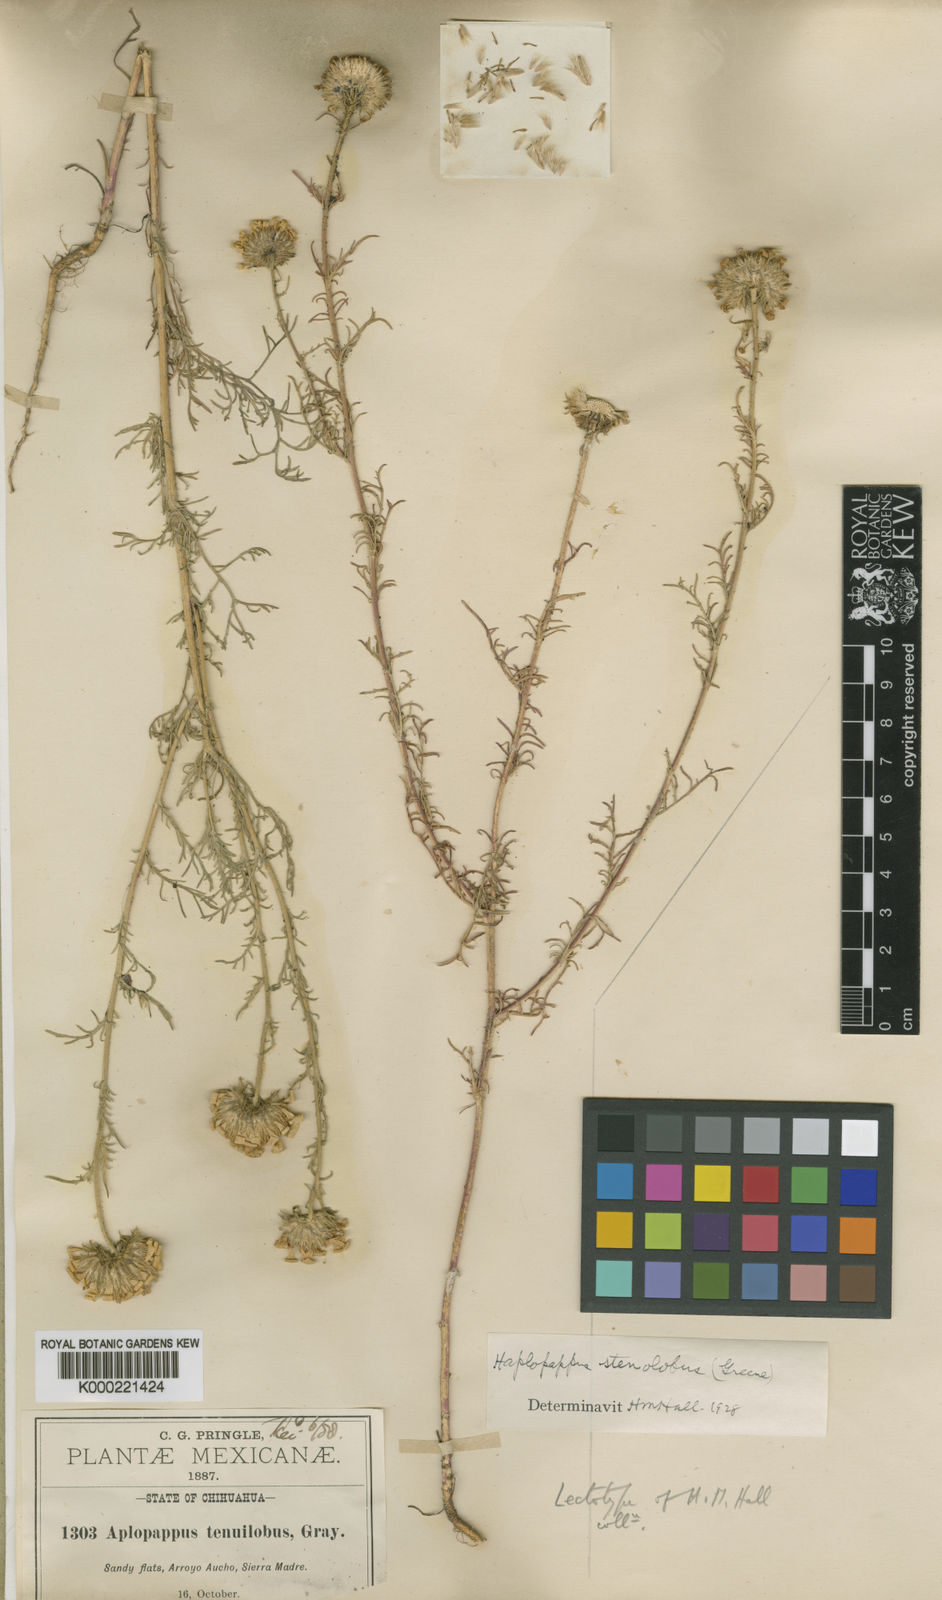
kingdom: Plantae
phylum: Tracheophyta
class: Magnoliopsida
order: Asterales
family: Asteraceae
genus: Xanthisma
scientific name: Xanthisma stenolobum
